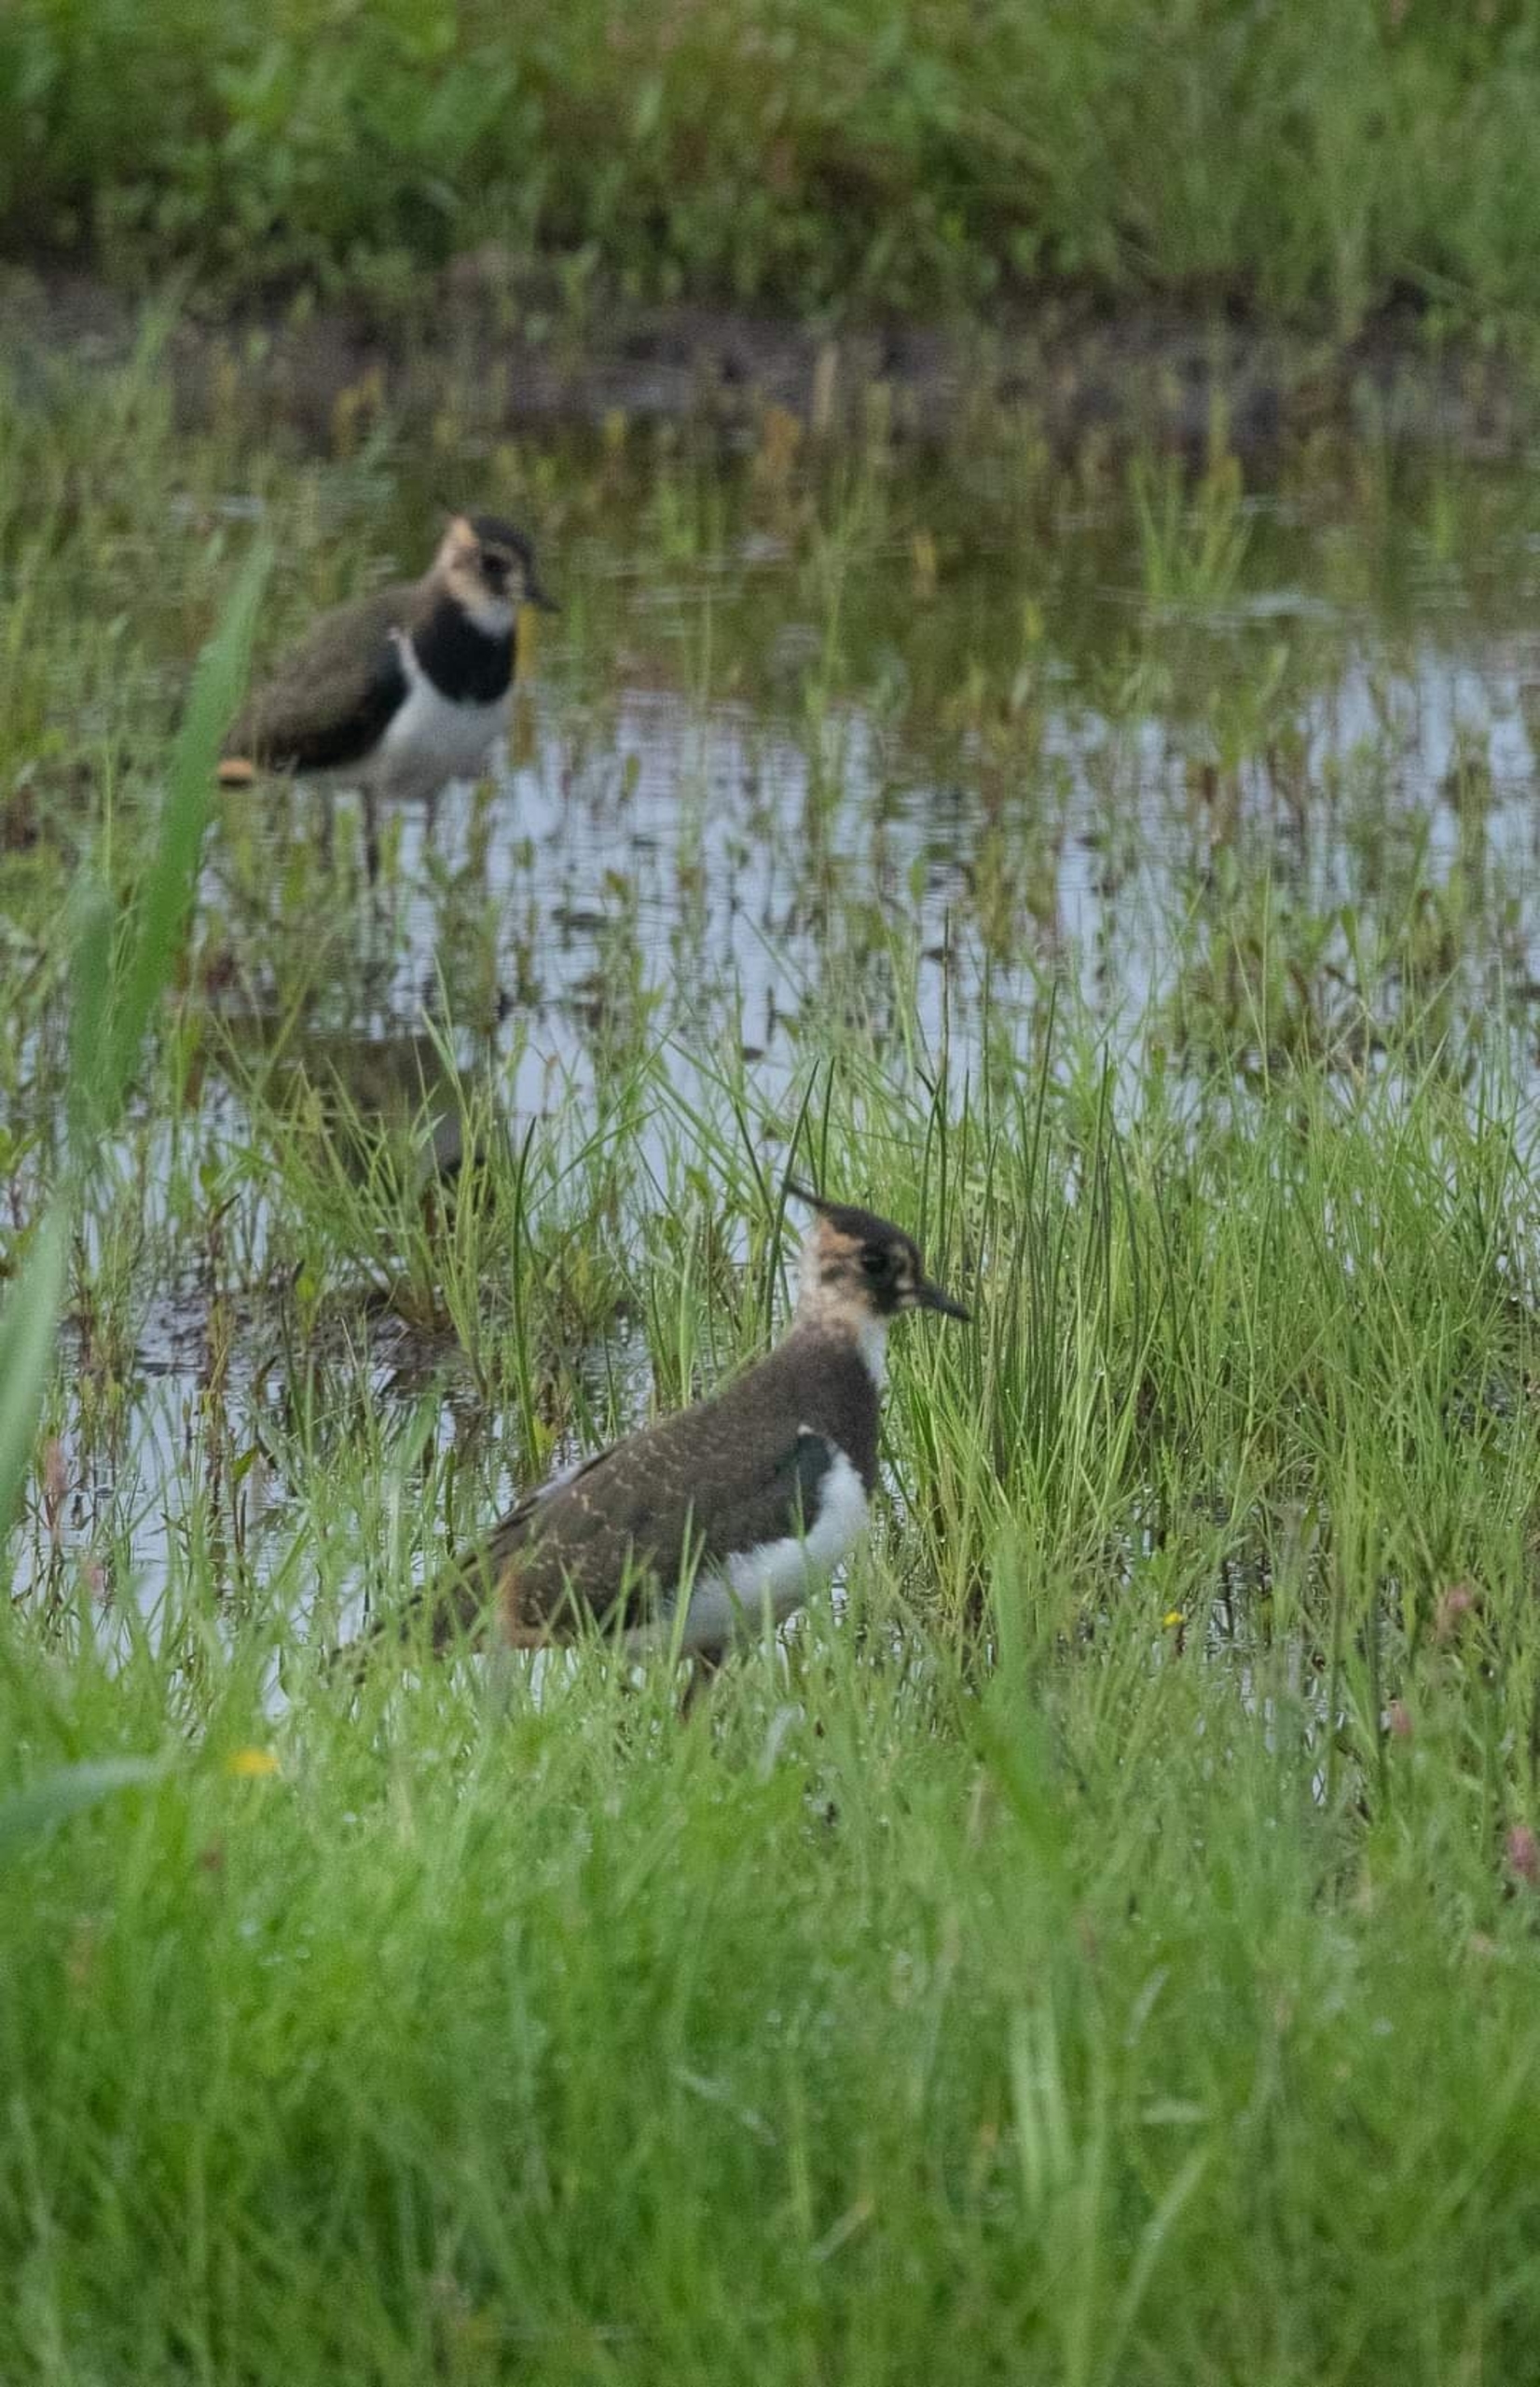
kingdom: Animalia
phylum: Chordata
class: Aves
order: Charadriiformes
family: Charadriidae
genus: Vanellus
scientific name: Vanellus vanellus
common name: Vibe
